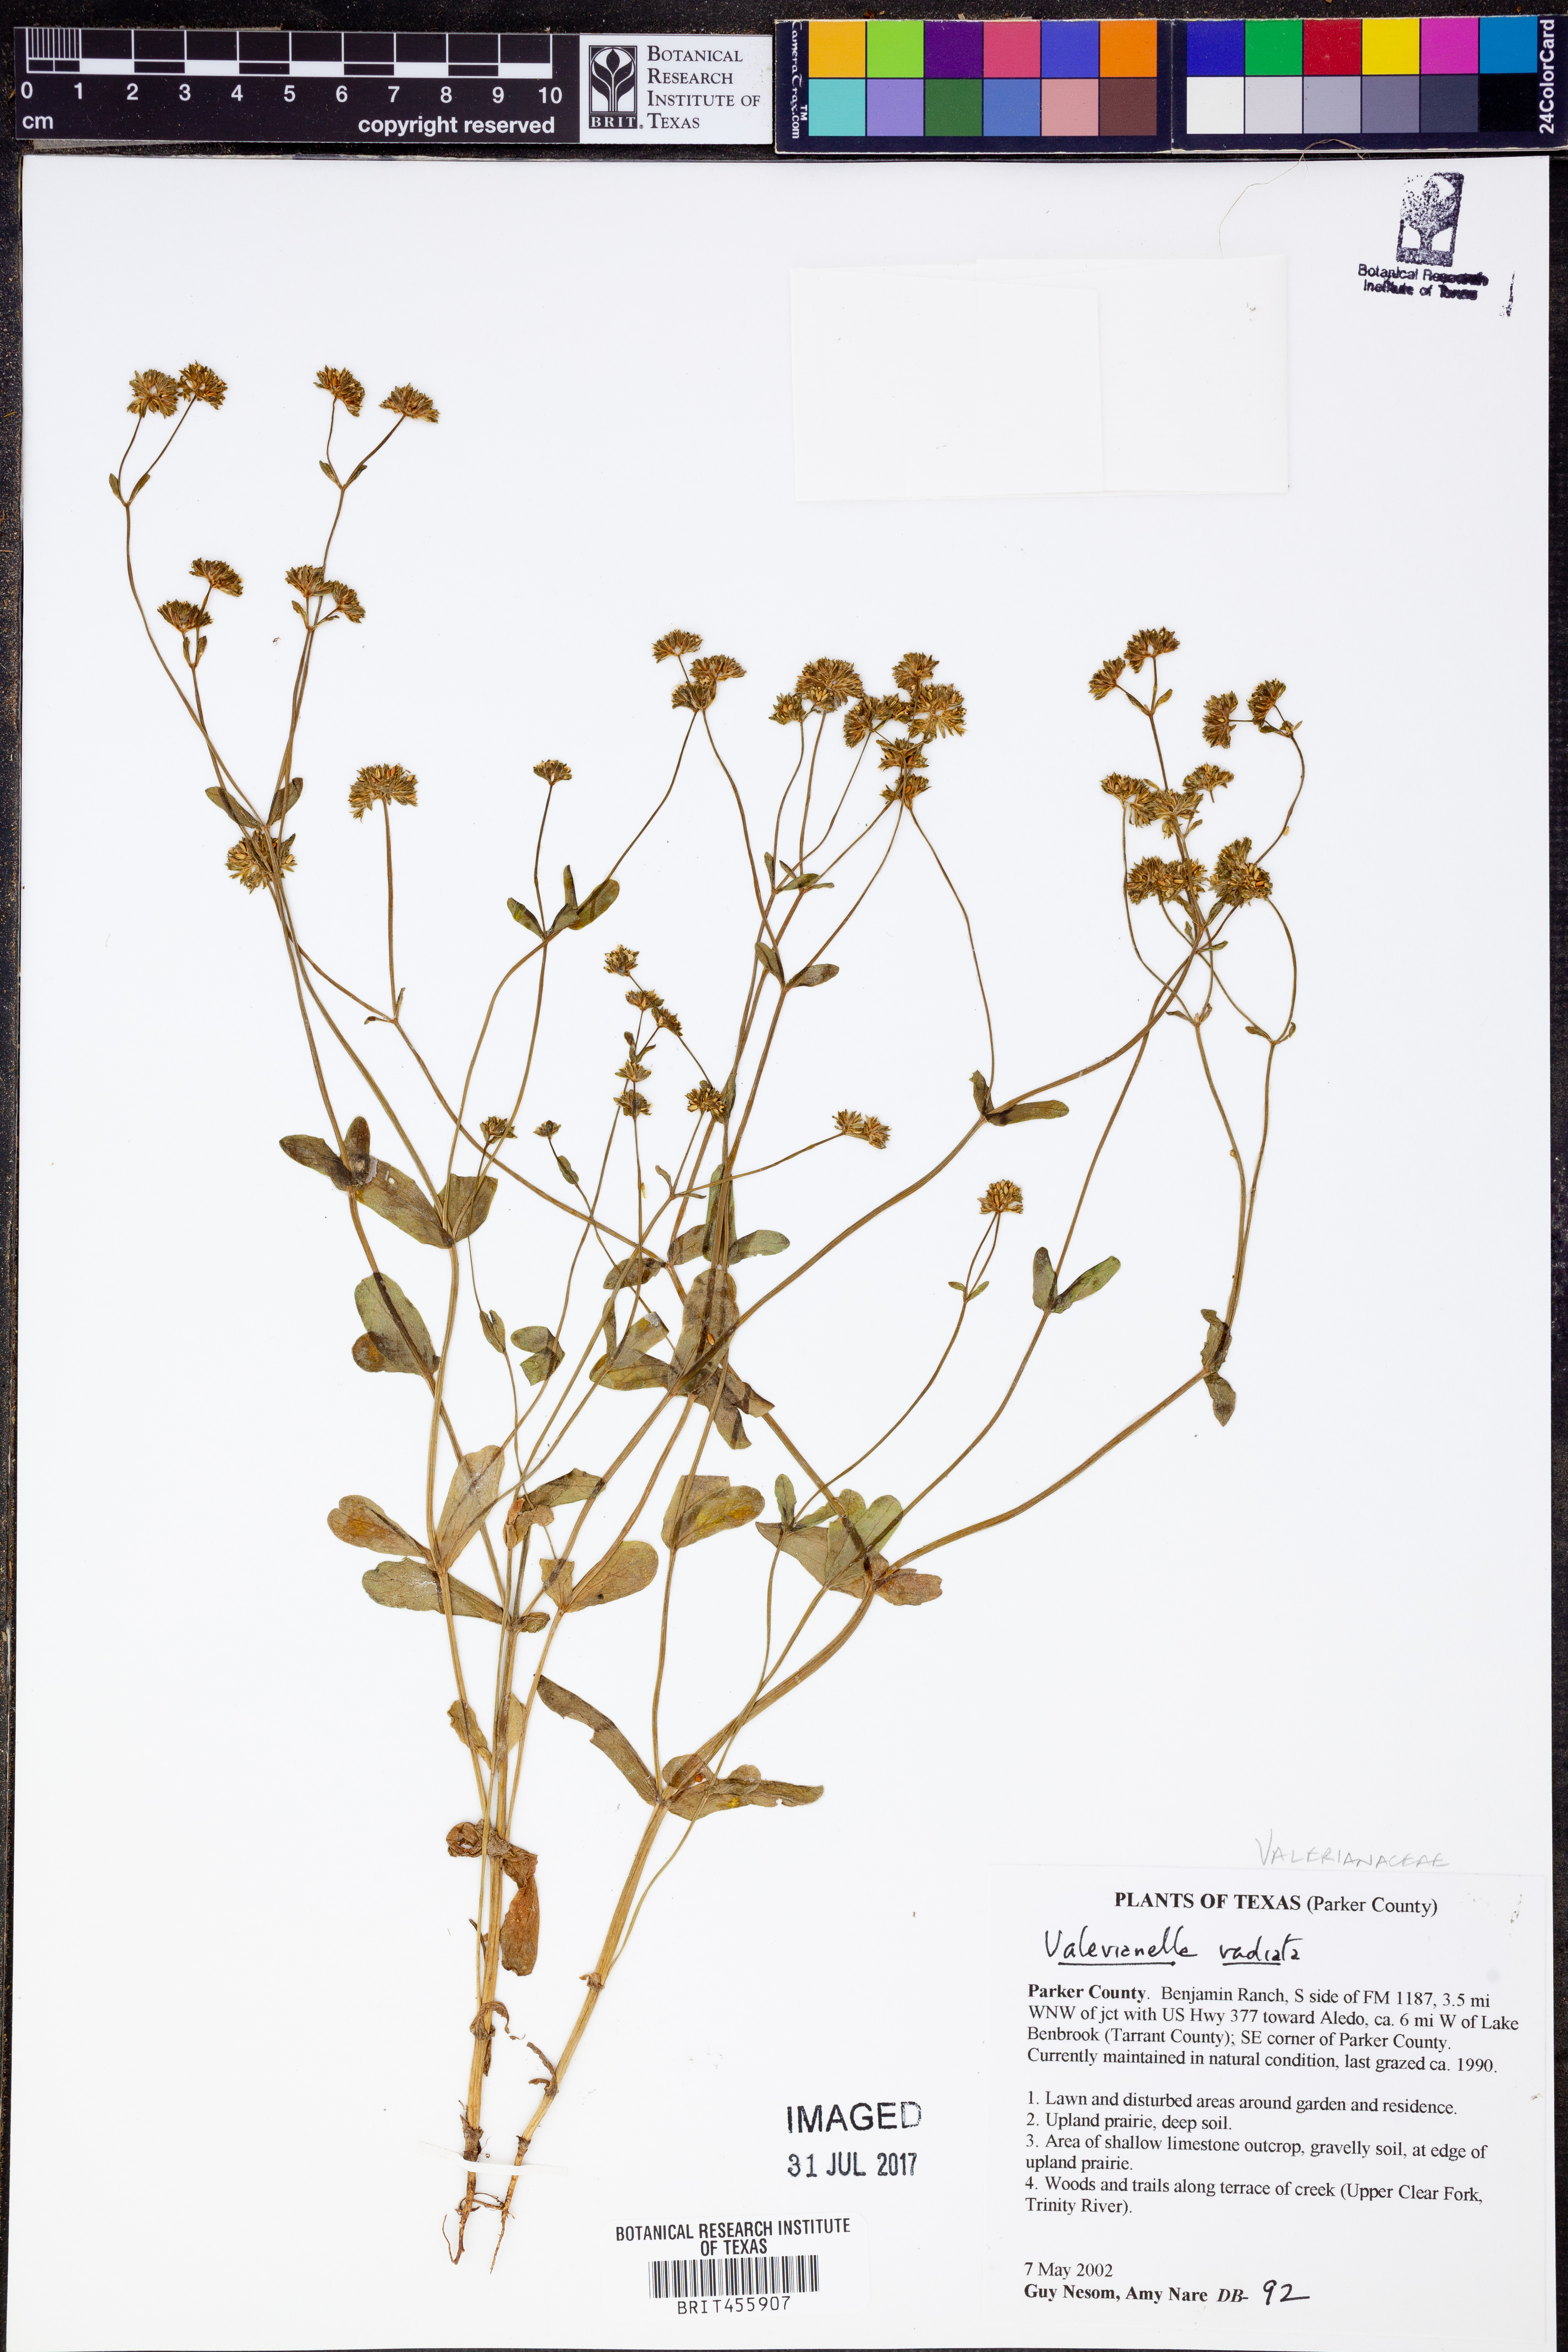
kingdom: Plantae
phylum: Tracheophyta
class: Magnoliopsida
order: Dipsacales
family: Caprifoliaceae
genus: Valerianella
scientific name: Valerianella radiata
